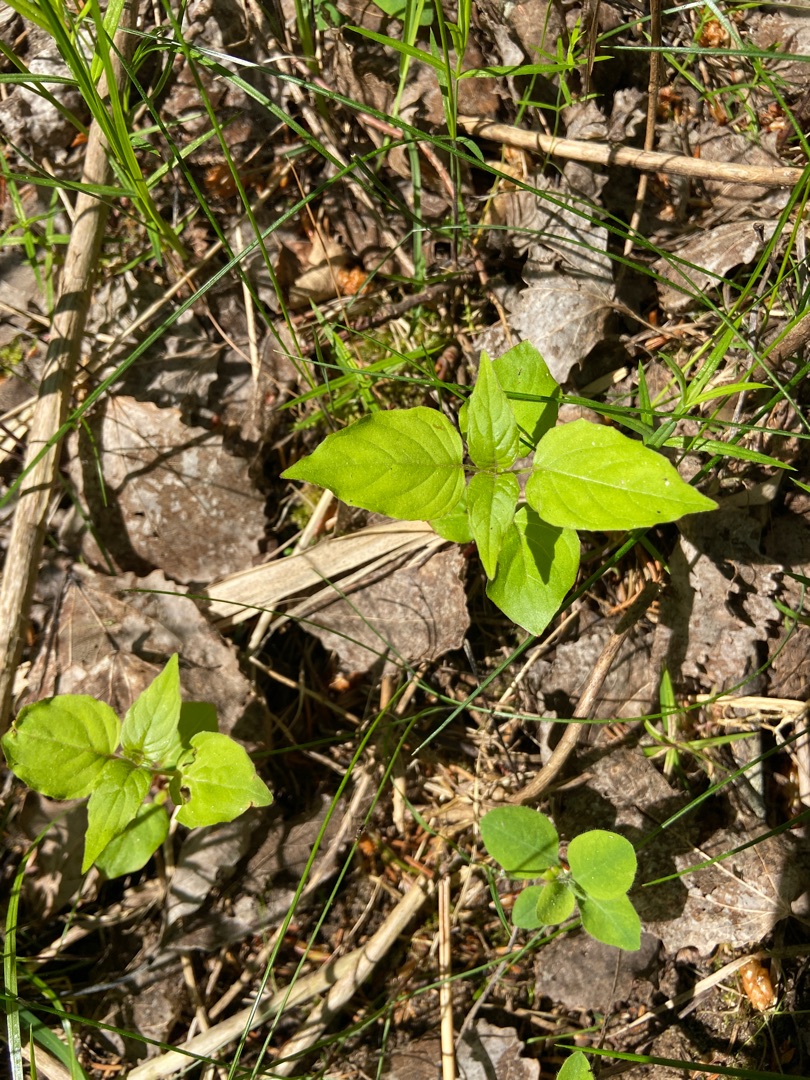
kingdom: Plantae
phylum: Tracheophyta
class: Magnoliopsida
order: Myrtales
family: Onagraceae
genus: Circaea
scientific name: Circaea lutetiana
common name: Dunet steffensurt
